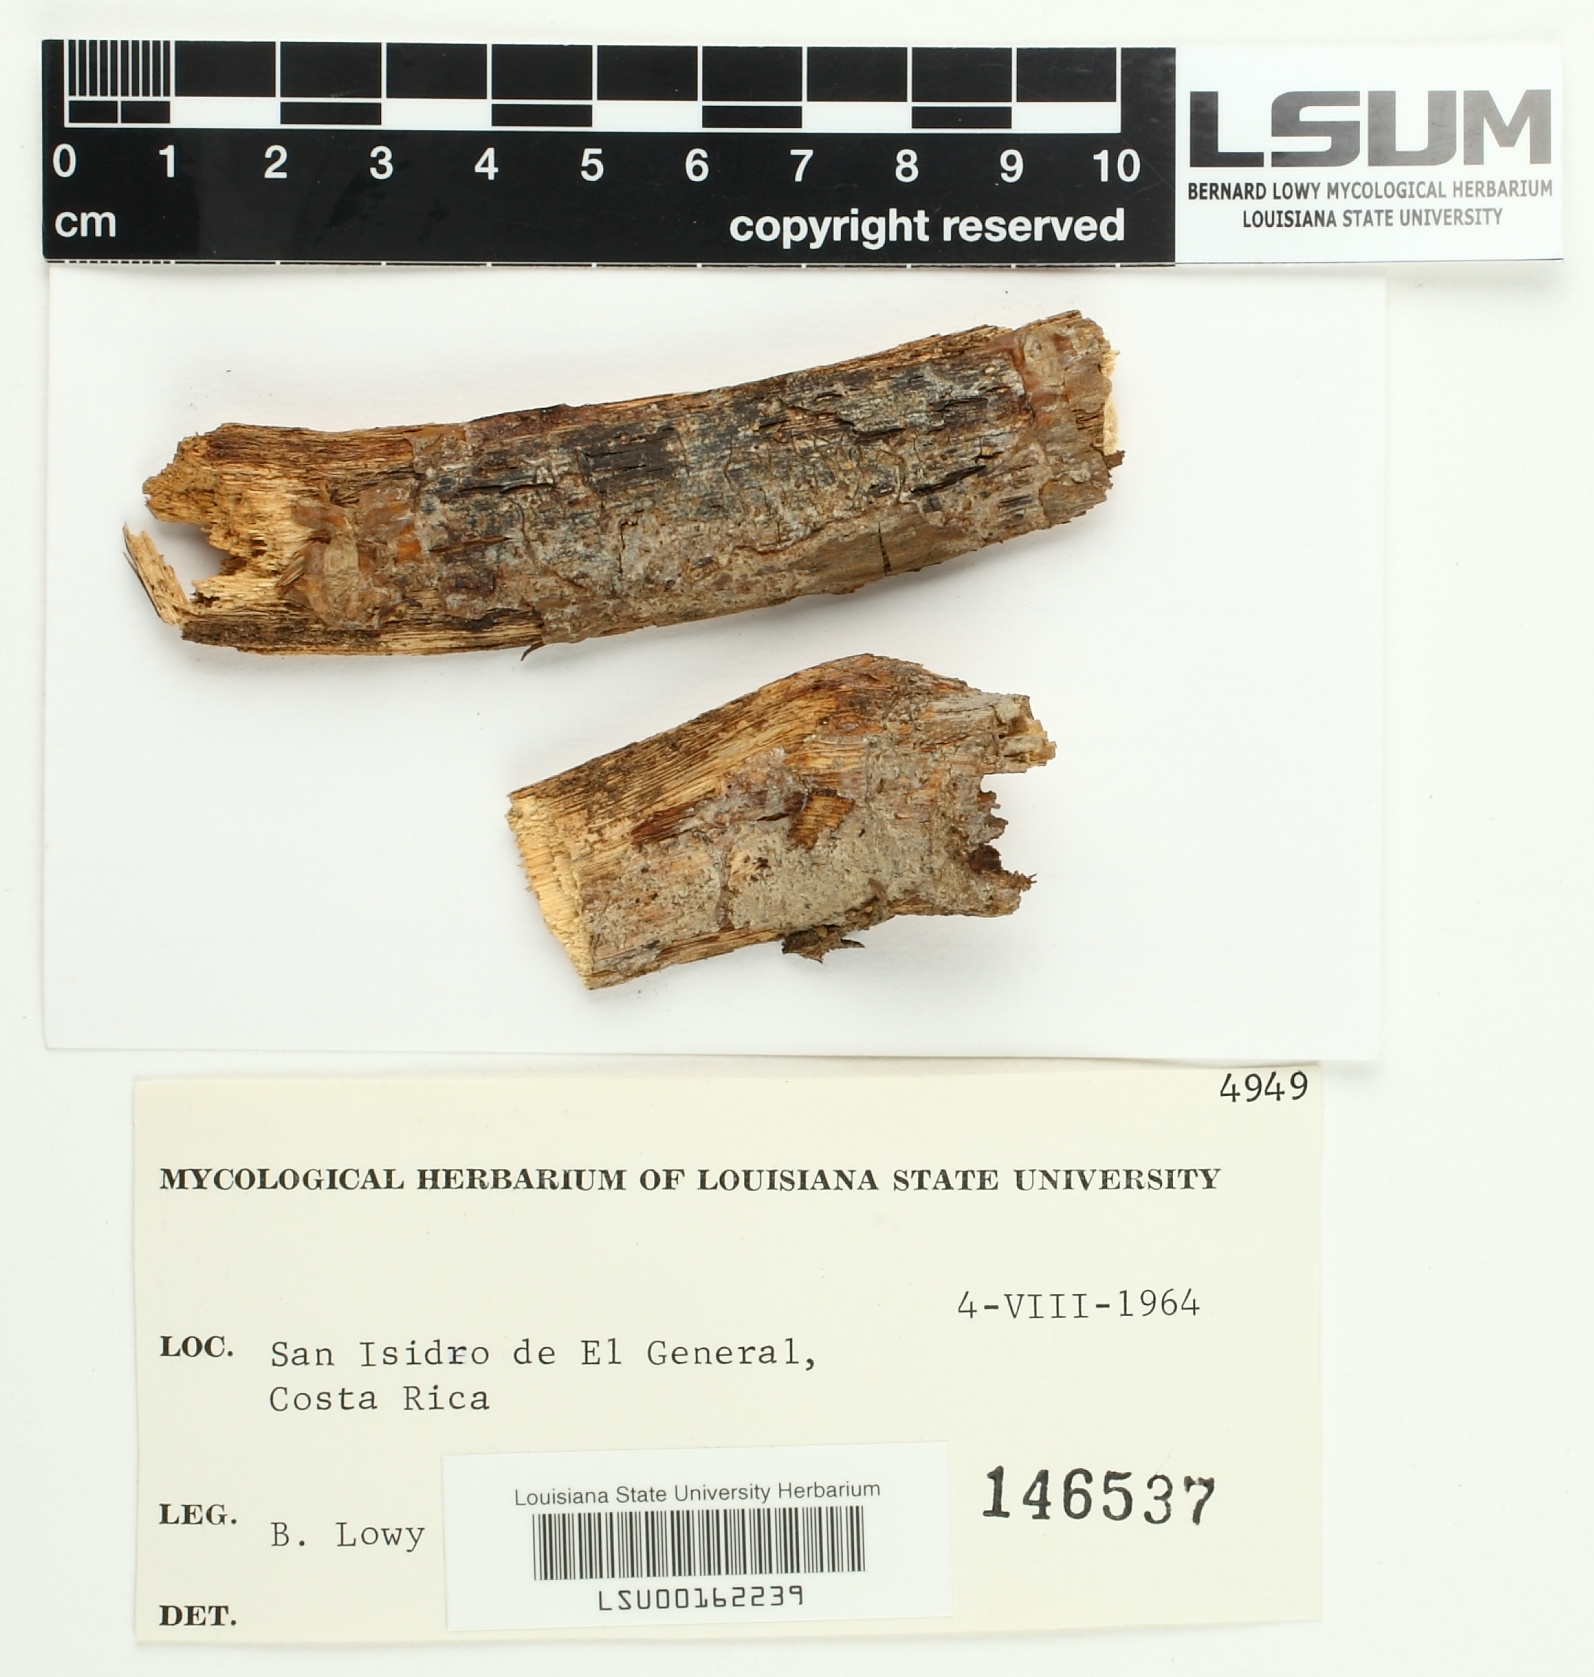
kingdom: Fungi
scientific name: Fungi
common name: Fungi
